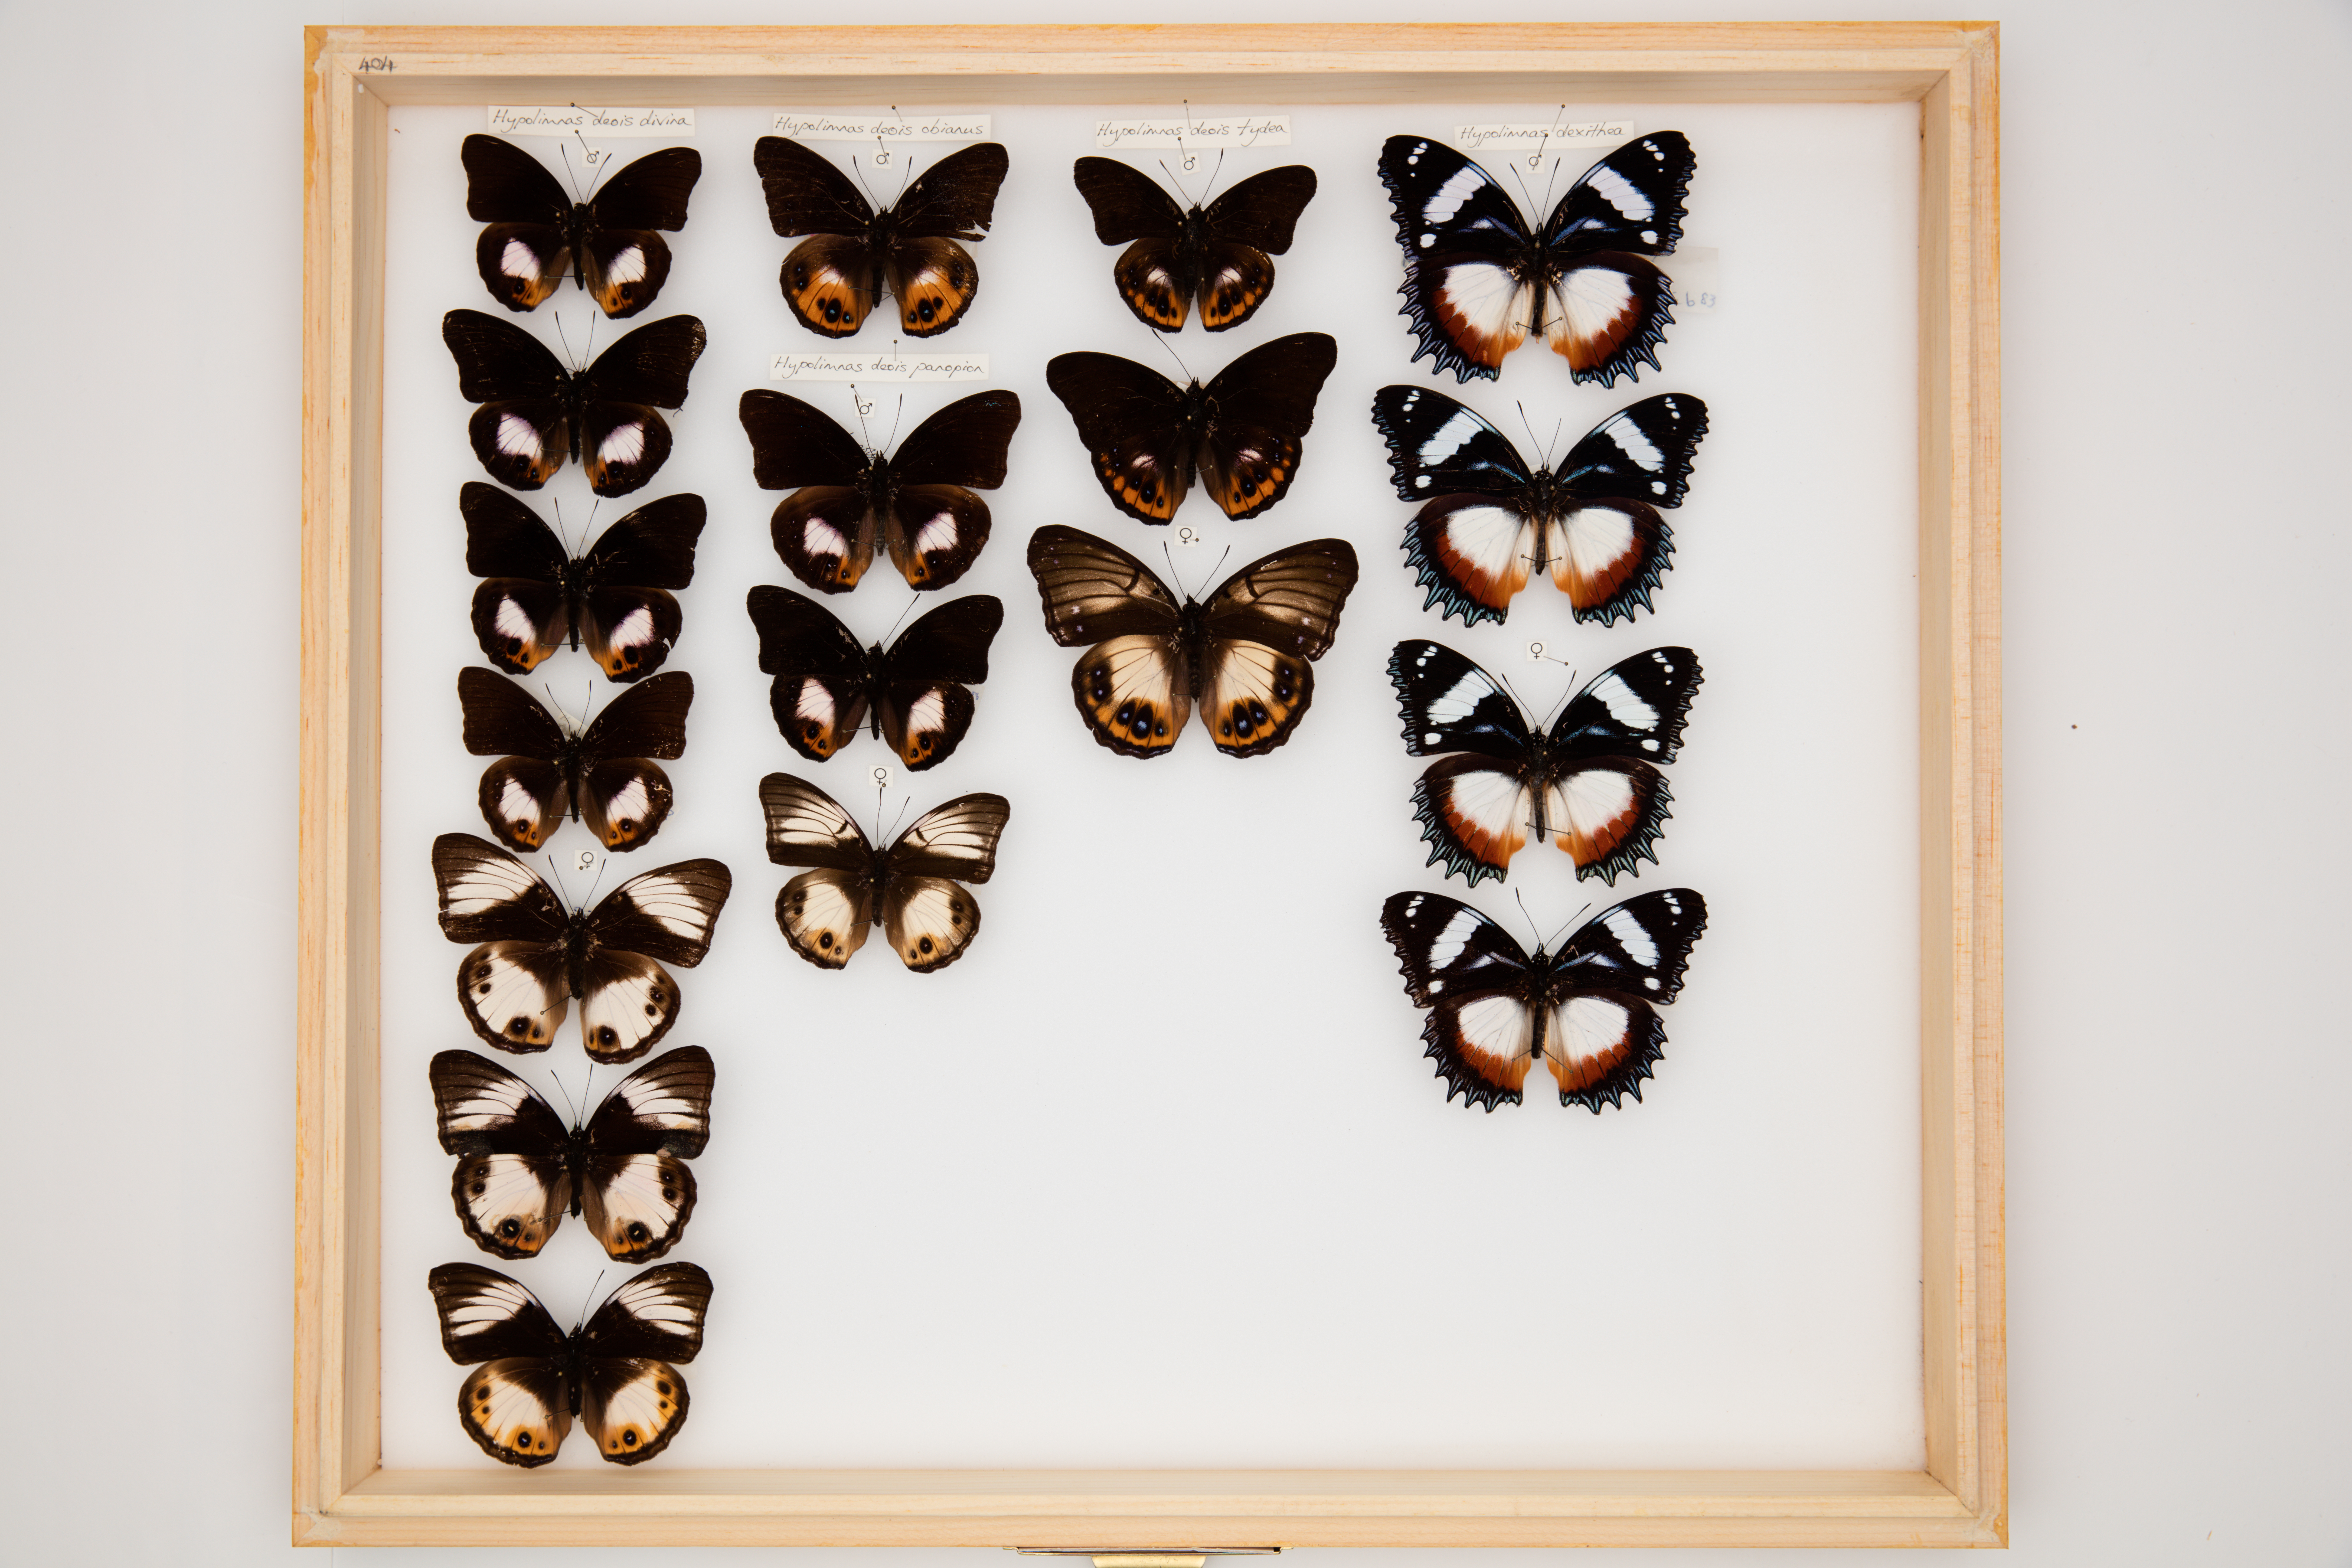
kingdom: Animalia
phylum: Arthropoda
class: Insecta
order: Lepidoptera
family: Nymphalidae
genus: Hypolimnas
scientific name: Hypolimnas deois
